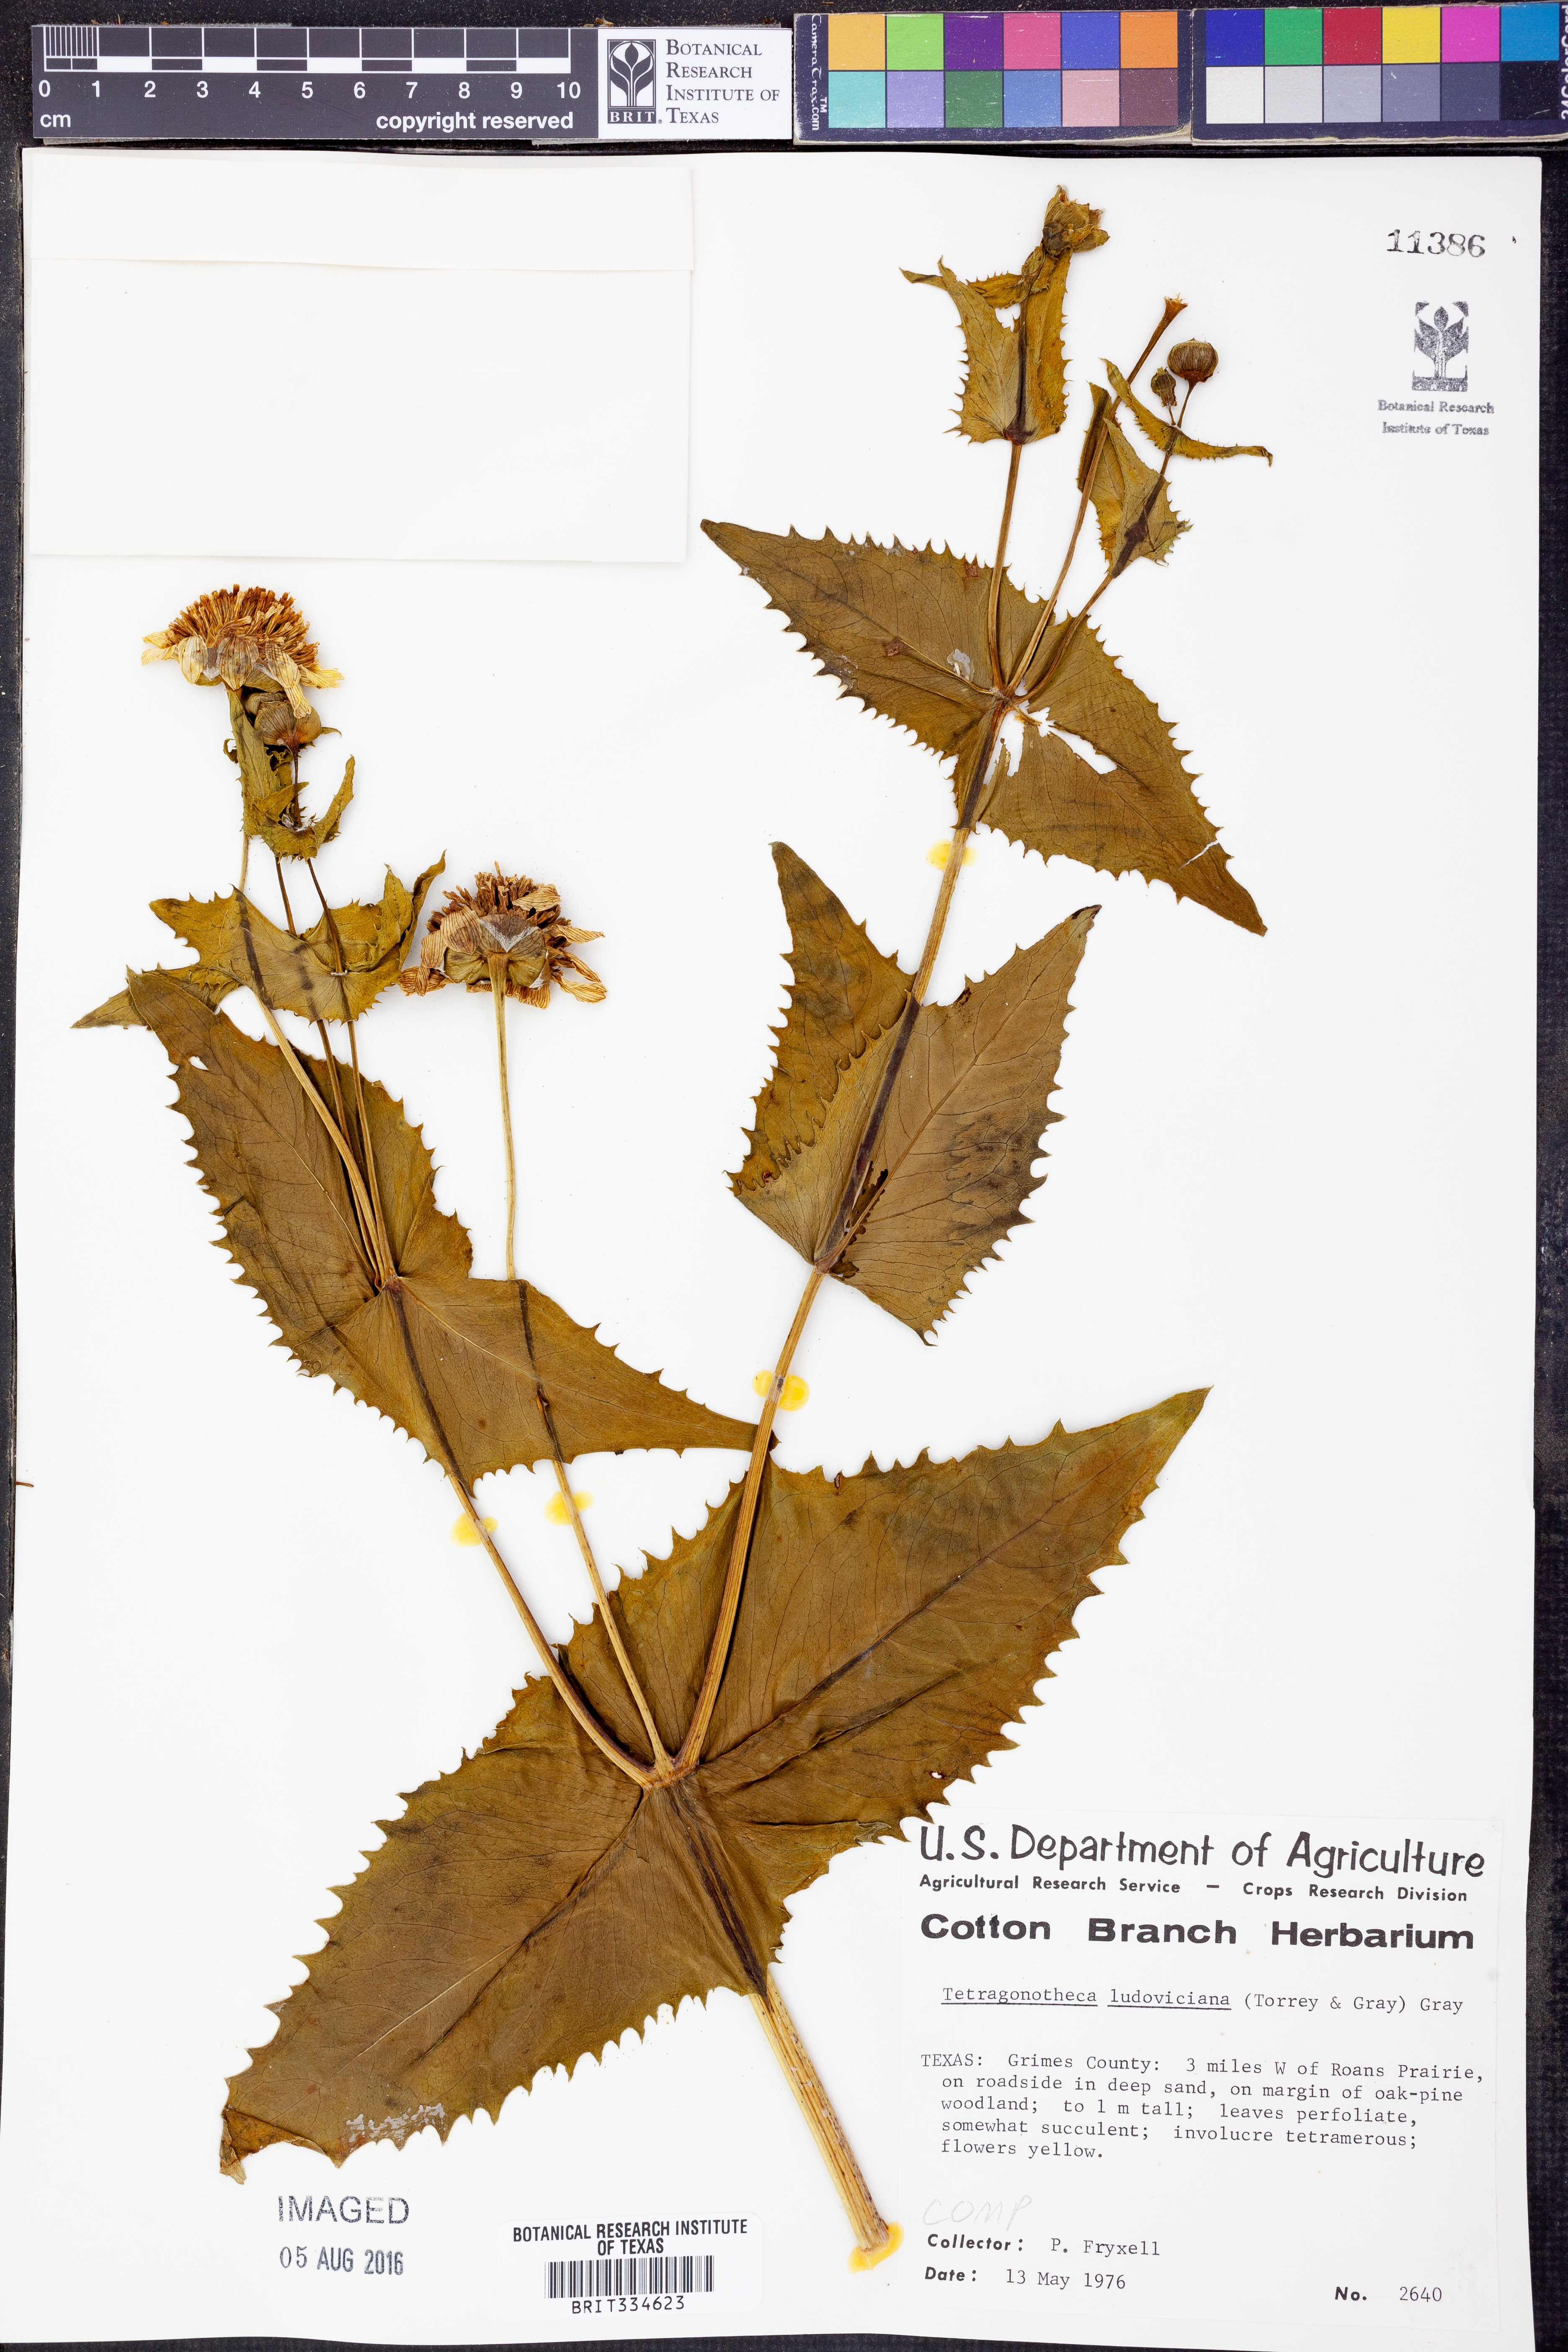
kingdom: Plantae
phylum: Tracheophyta
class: Magnoliopsida
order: Asterales
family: Asteraceae
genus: Tetragonotheca
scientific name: Tetragonotheca ludoviciana
